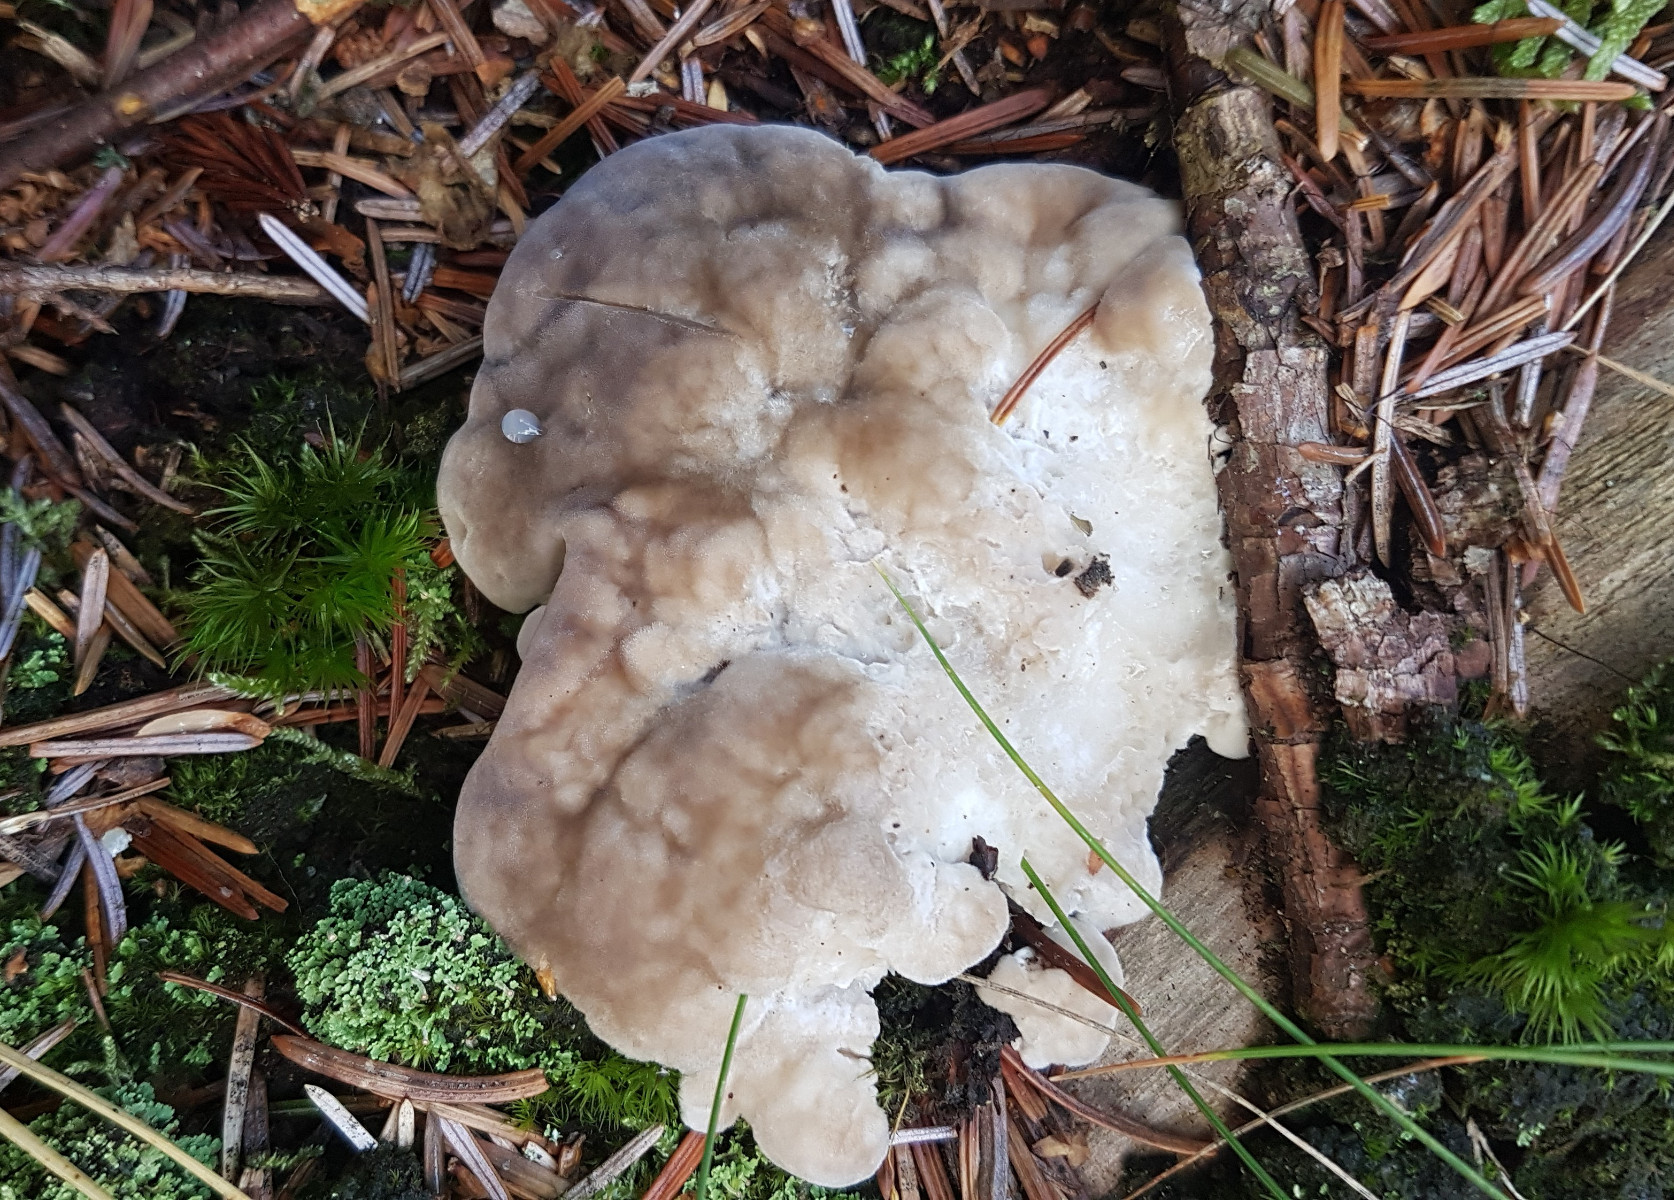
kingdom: Fungi
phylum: Basidiomycota
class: Agaricomycetes
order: Polyporales
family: Dacryobolaceae
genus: Postia
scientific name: Postia tephroleuca
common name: grålig kødporesvamp
